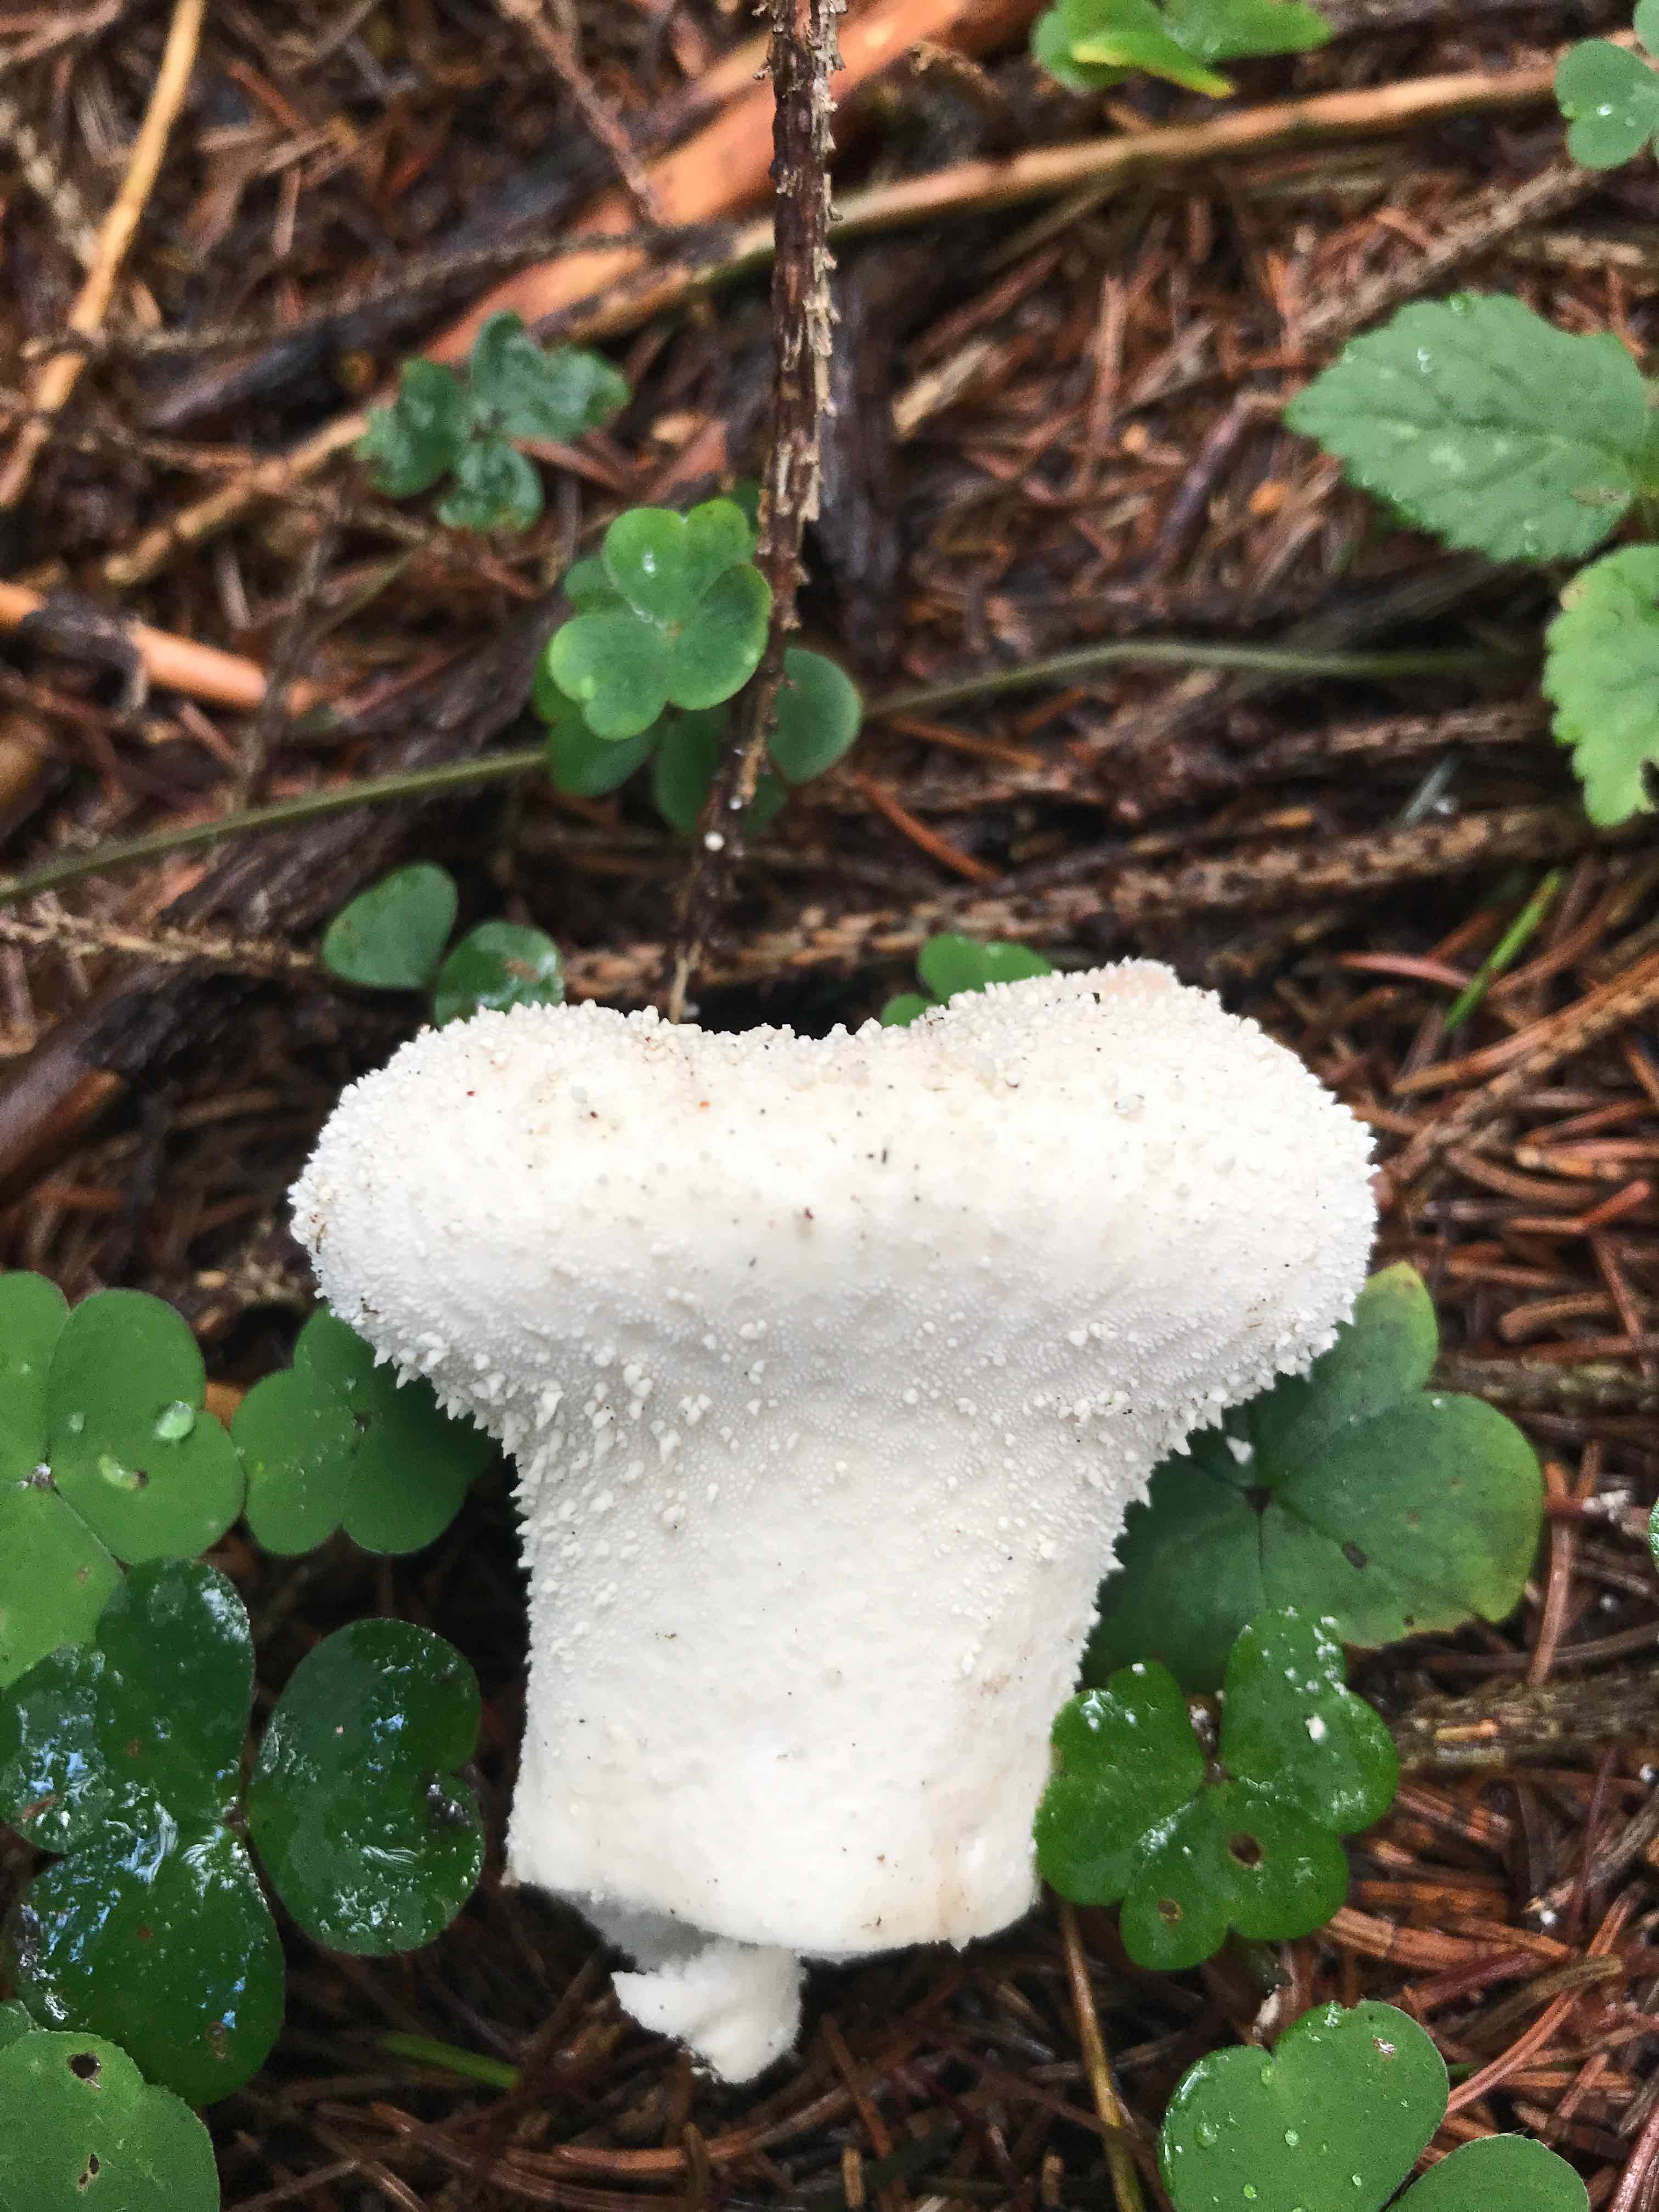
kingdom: Fungi
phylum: Basidiomycota
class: Agaricomycetes
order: Agaricales
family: Lycoperdaceae
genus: Lycoperdon
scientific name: Lycoperdon perlatum
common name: krystal-støvbold
